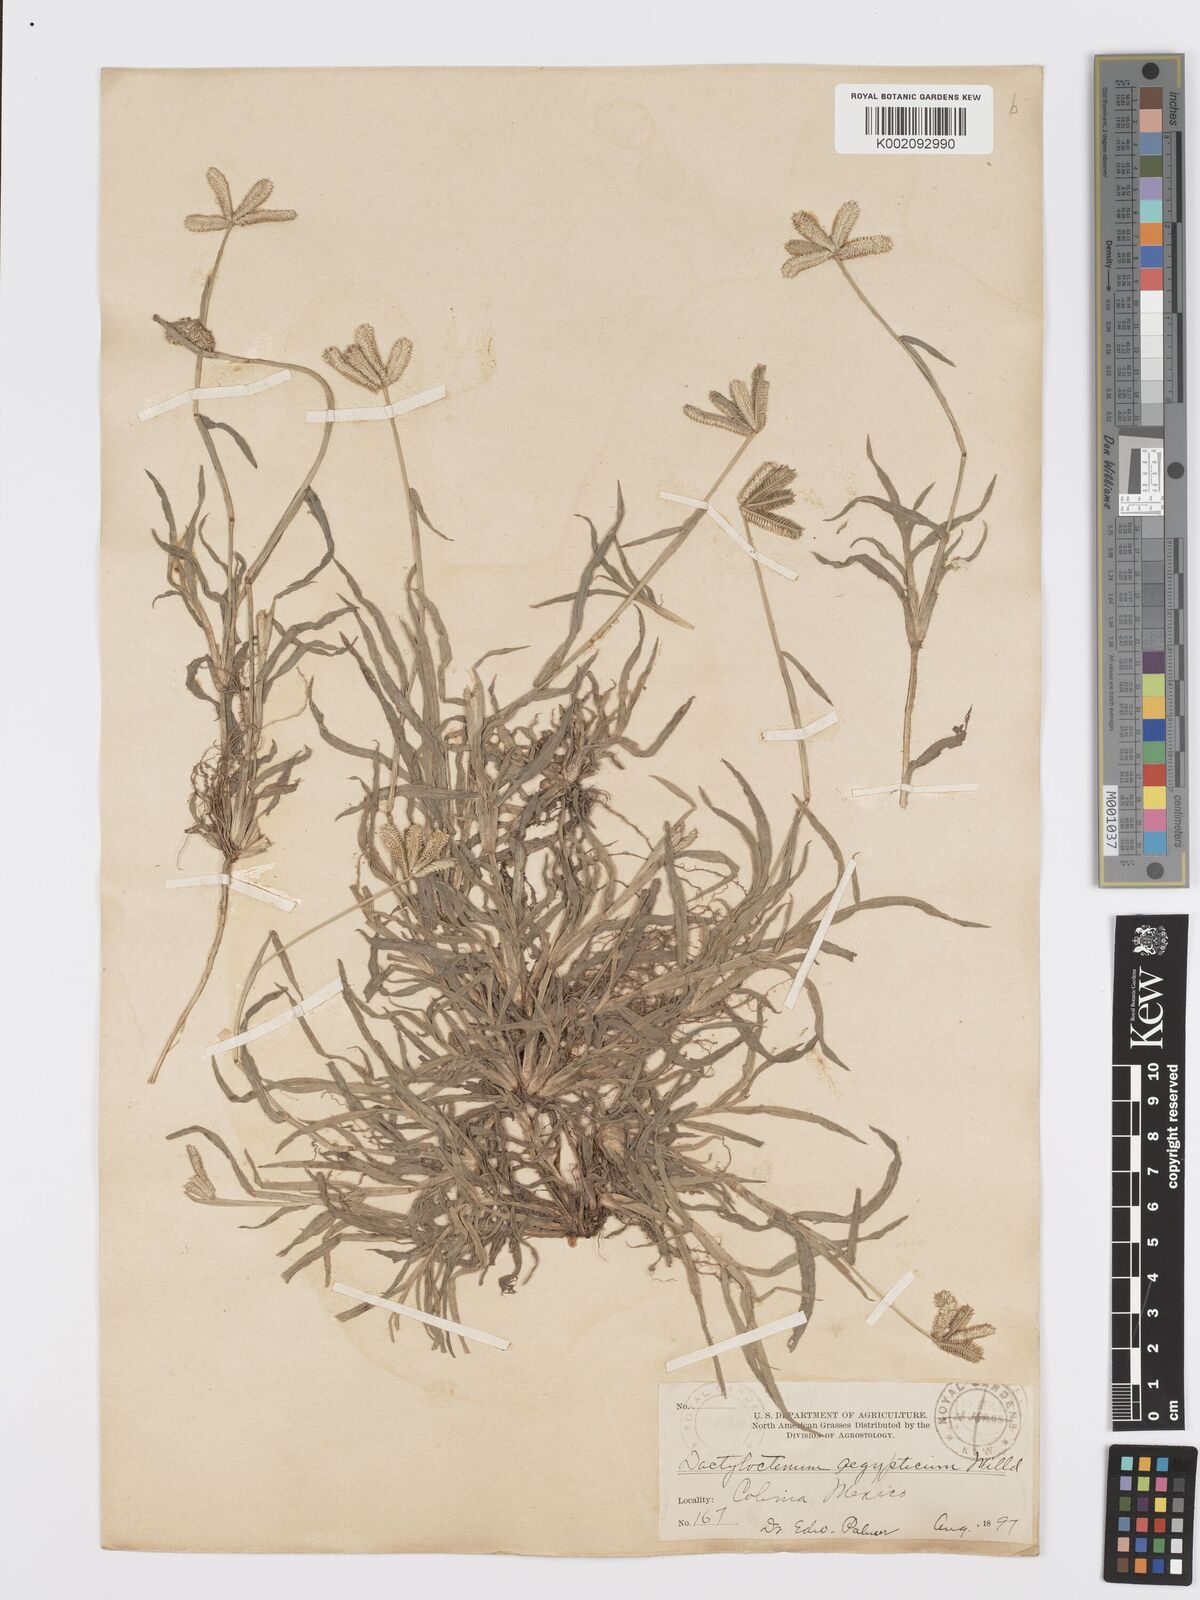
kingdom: Plantae
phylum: Tracheophyta
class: Liliopsida
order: Poales
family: Poaceae
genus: Dactyloctenium
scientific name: Dactyloctenium aegyptium
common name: Egyptian grass
